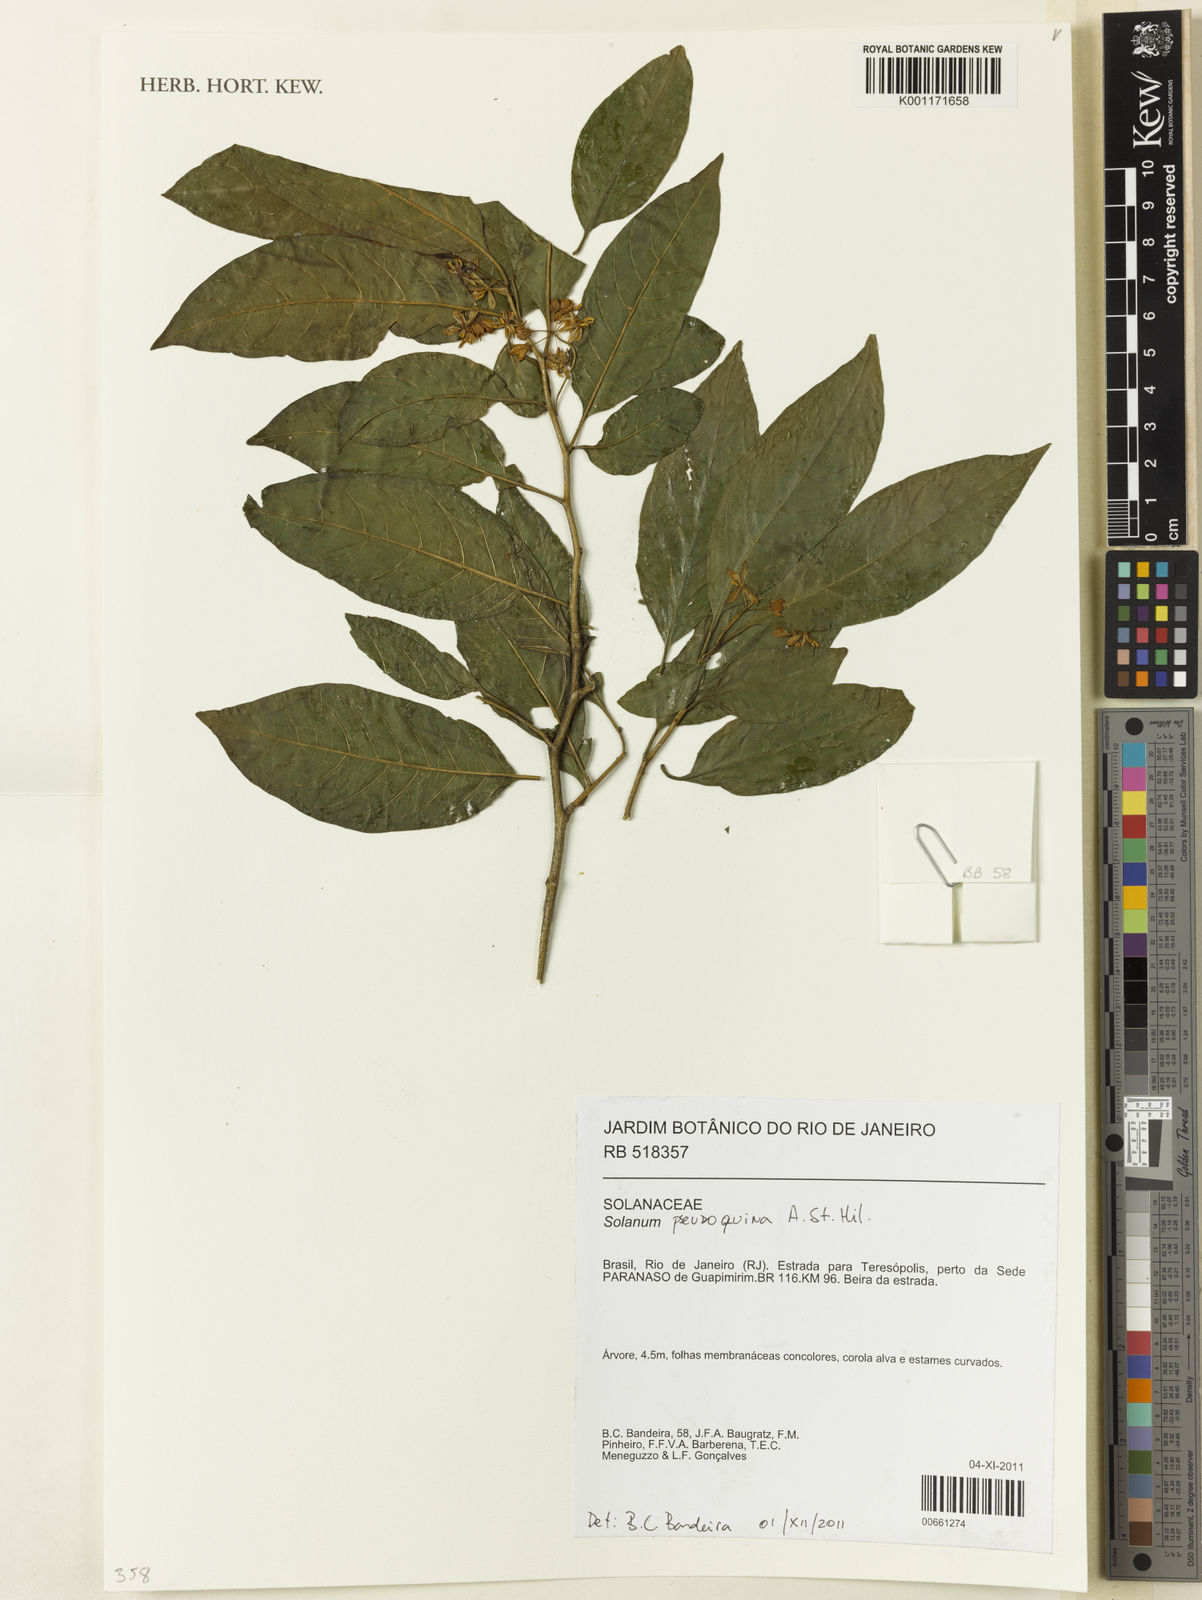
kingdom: Plantae
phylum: Tracheophyta
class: Magnoliopsida
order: Solanales
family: Solanaceae
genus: Solanum
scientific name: Solanum pseudoquina
